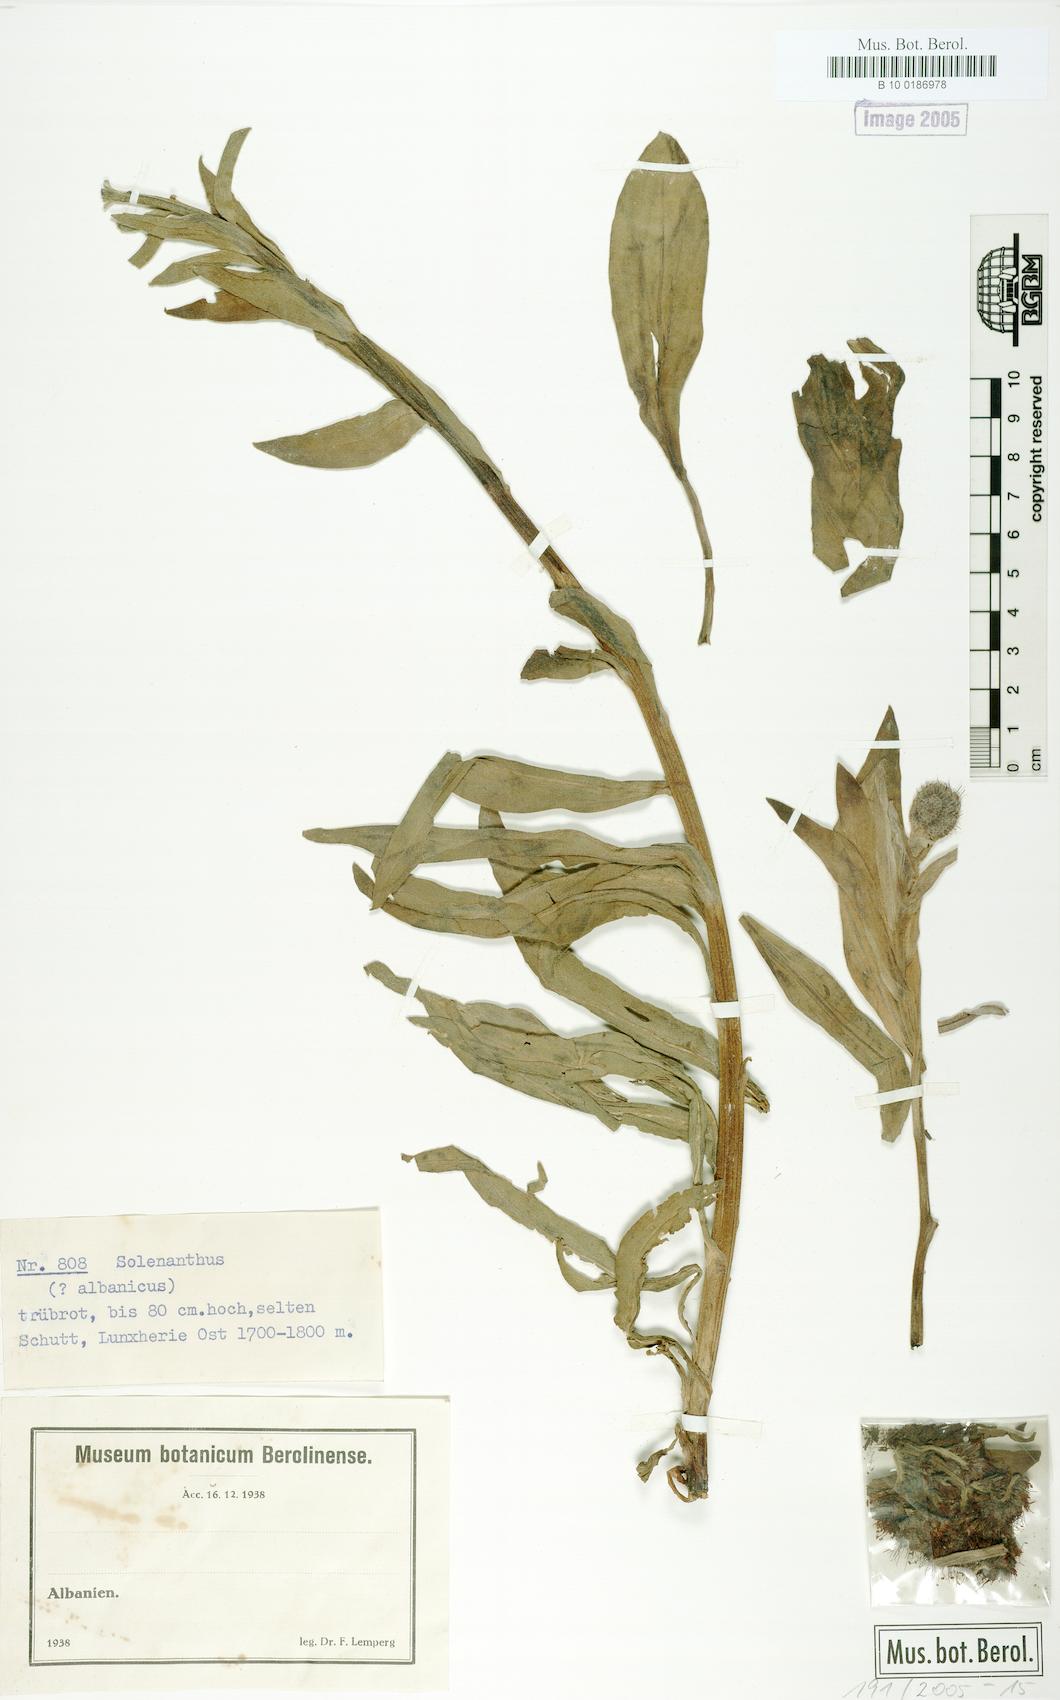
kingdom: Plantae
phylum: Tracheophyta
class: Magnoliopsida
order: Boraginales
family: Boraginaceae
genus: Solenanthus
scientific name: Solenanthus albanicus
